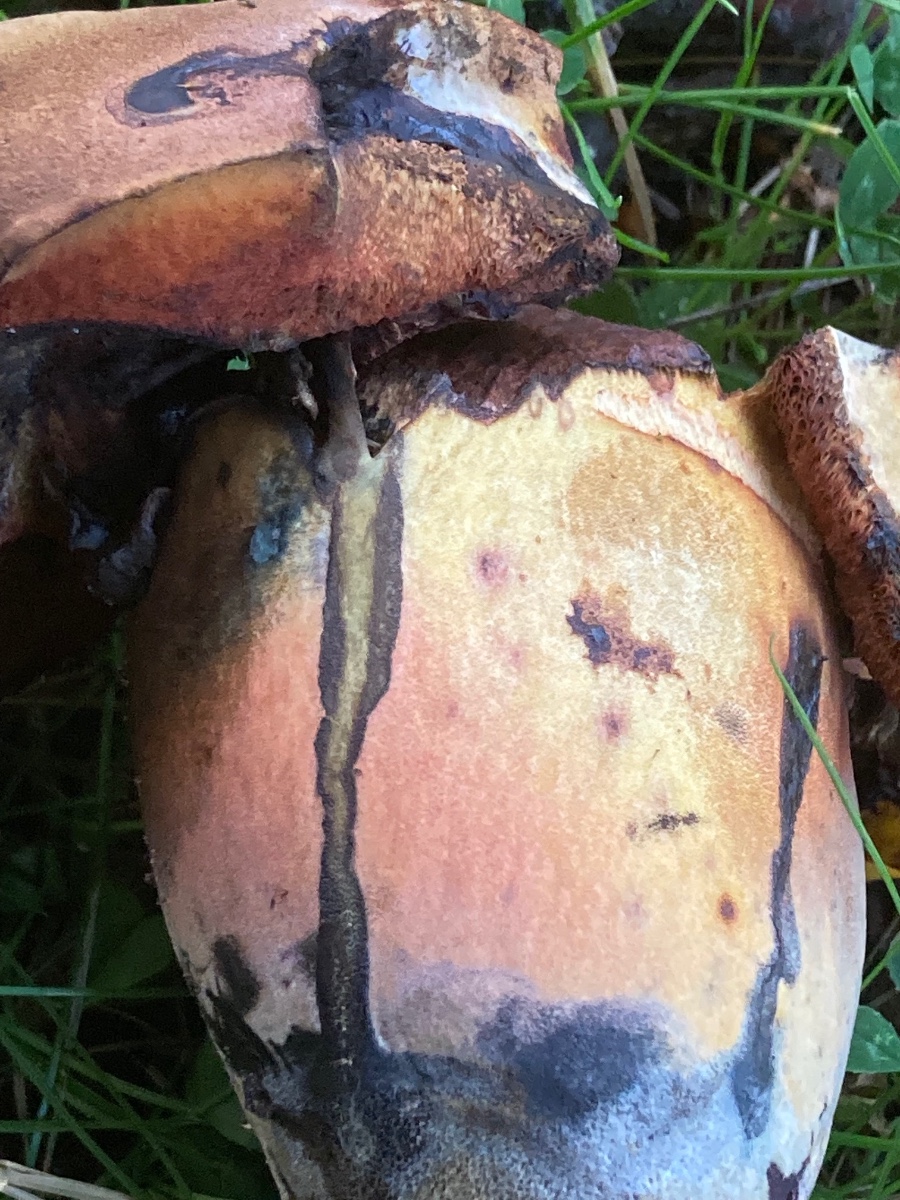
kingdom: Fungi
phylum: Basidiomycota
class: Agaricomycetes
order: Boletales
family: Boletaceae
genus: Neoboletus
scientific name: Neoboletus xanthopus
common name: finprikket indigorørhat
